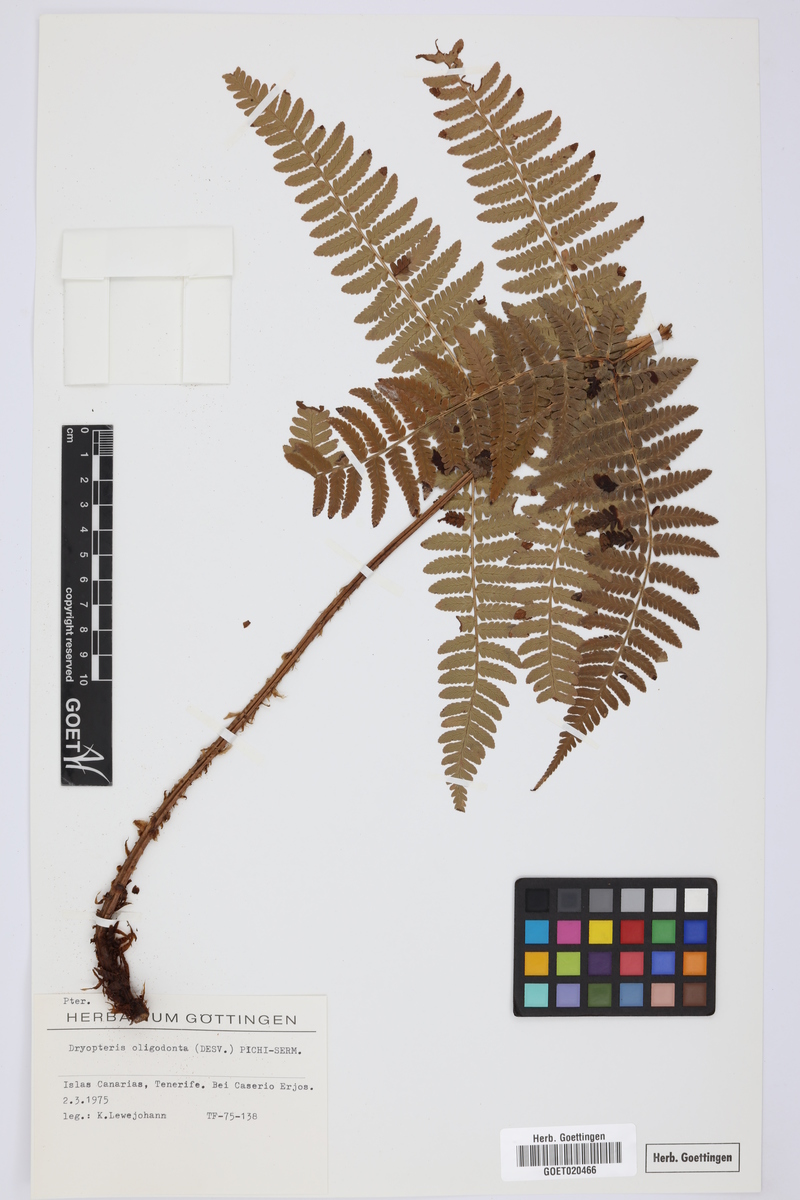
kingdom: Plantae
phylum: Tracheophyta
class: Polypodiopsida
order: Polypodiales
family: Dryopteridaceae
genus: Dryopteris
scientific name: Dryopteris oligodonta
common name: Canarian male-fern
